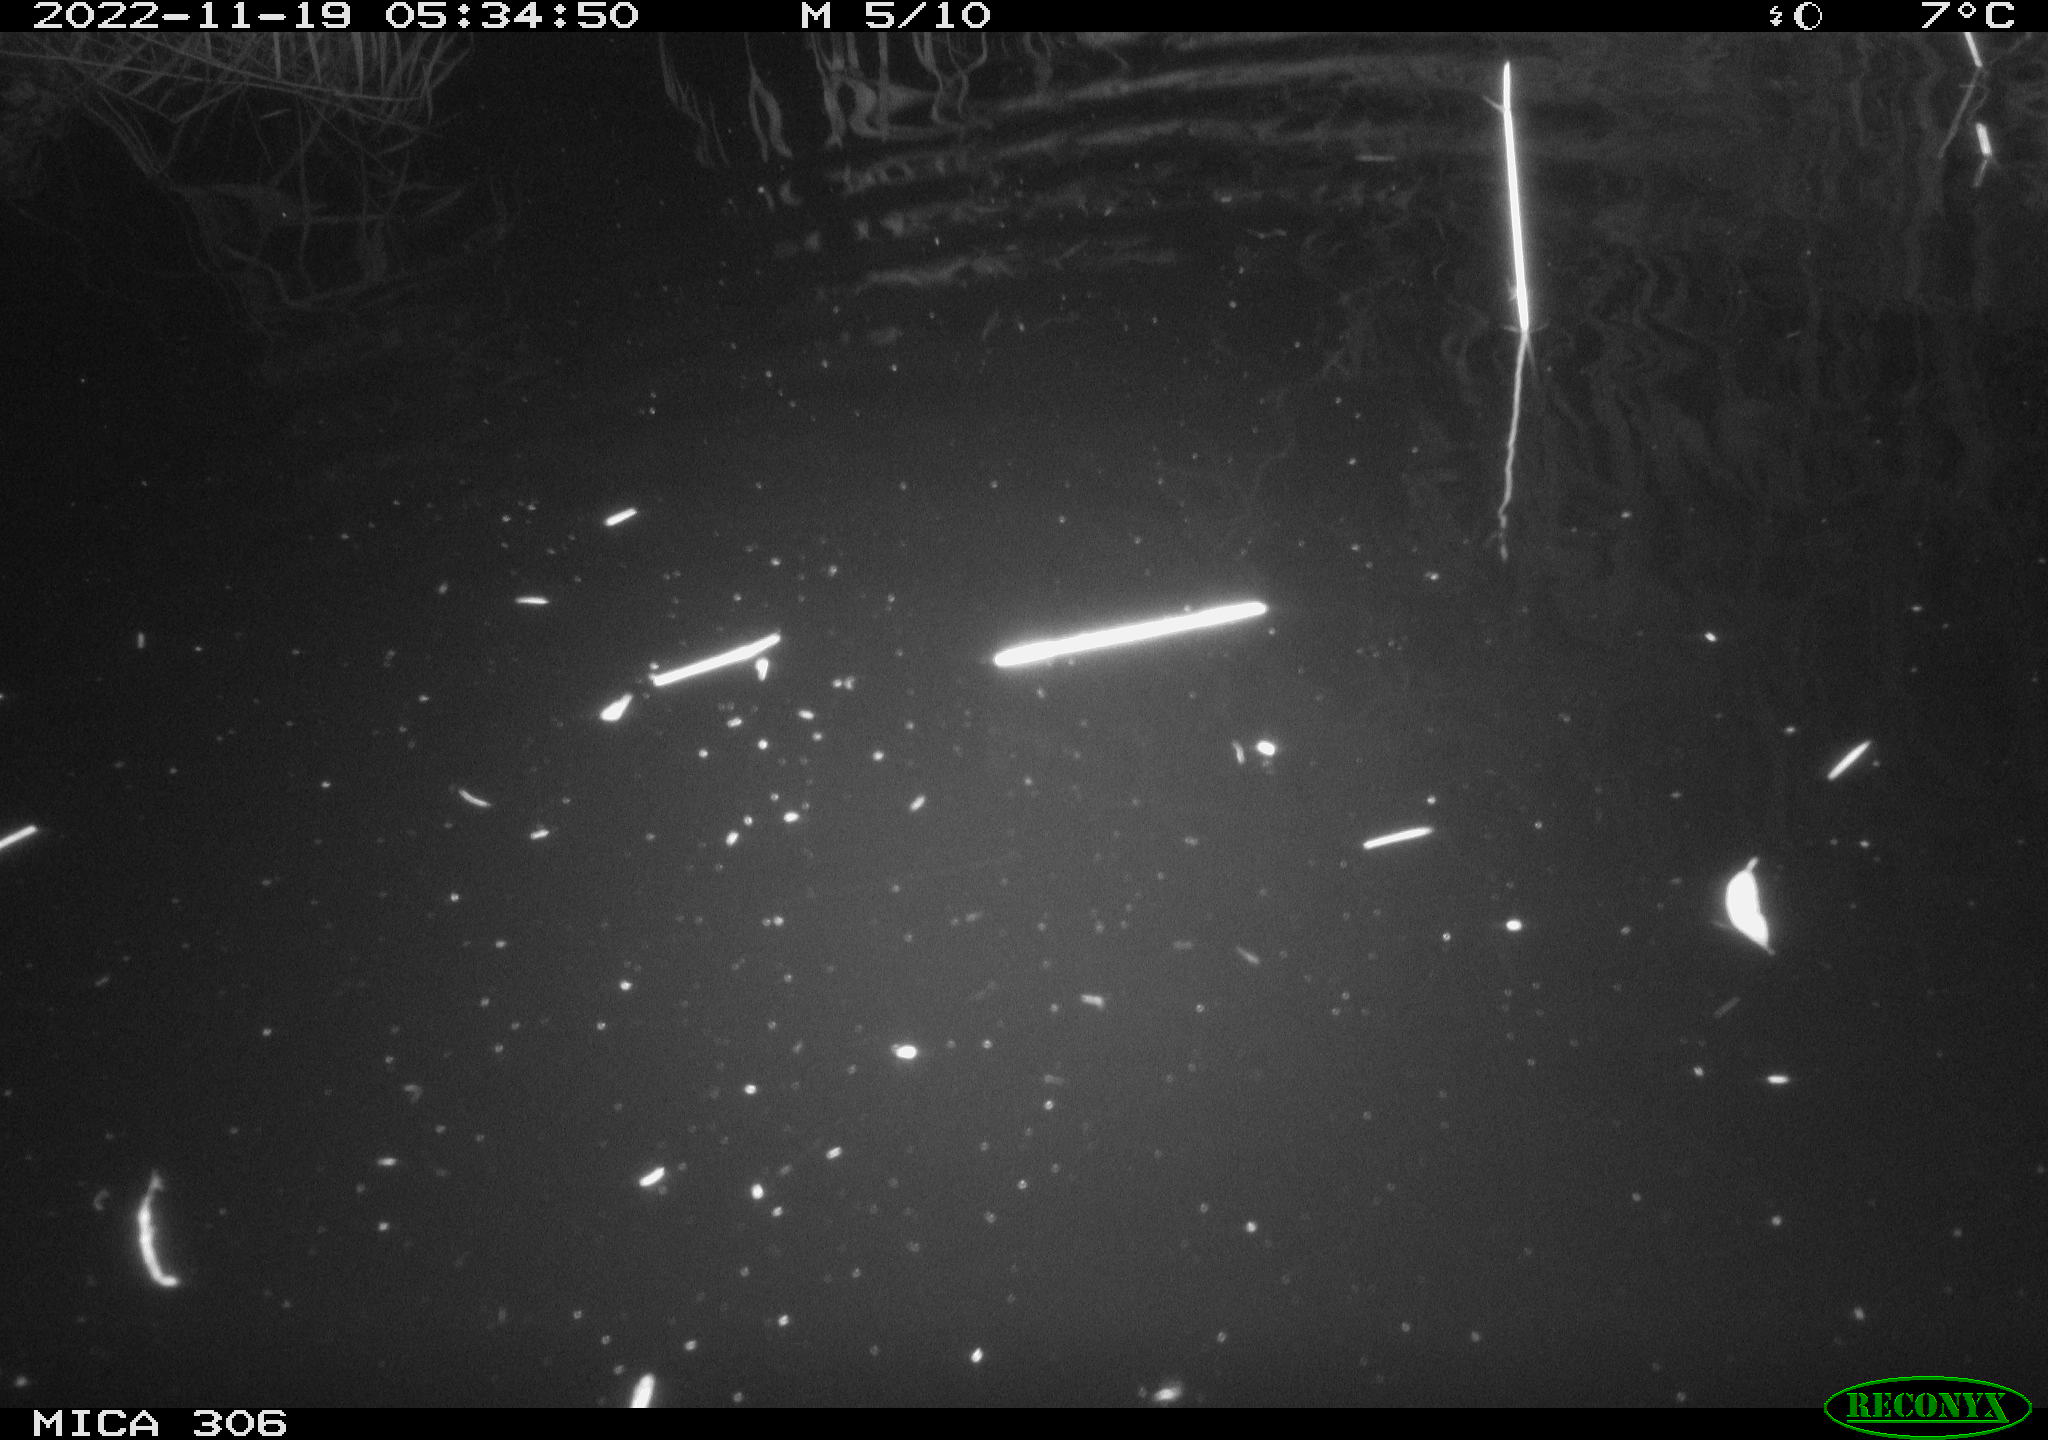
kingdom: Animalia
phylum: Chordata
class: Mammalia
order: Rodentia
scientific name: Rodentia
